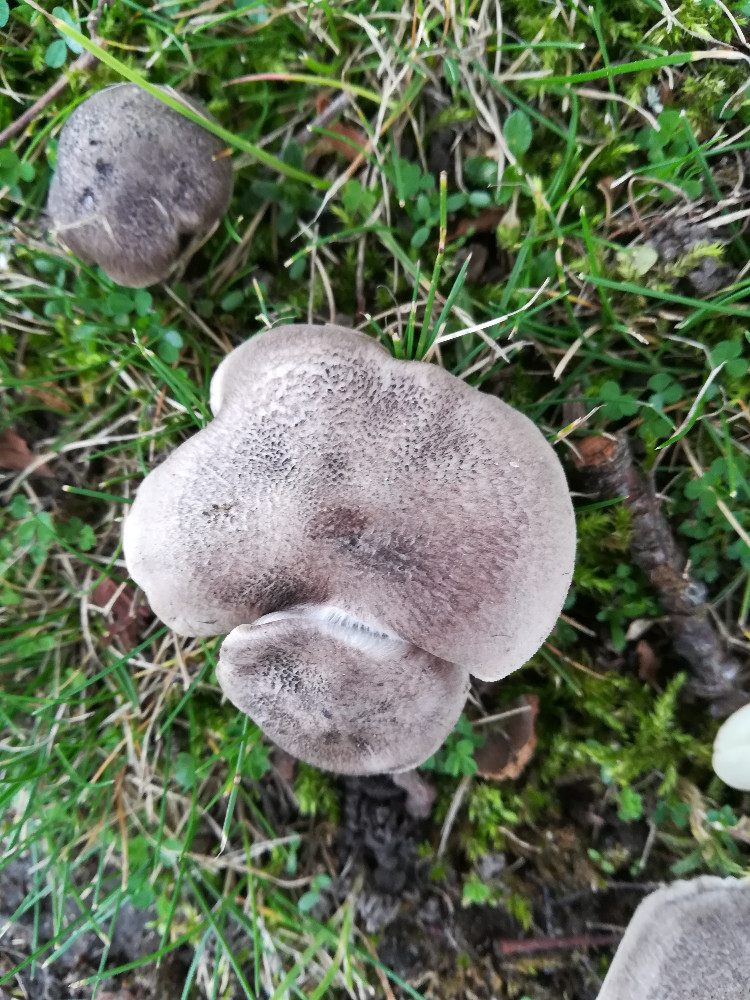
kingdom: Fungi
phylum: Basidiomycota
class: Agaricomycetes
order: Agaricales
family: Tricholomataceae
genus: Tricholoma
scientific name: Tricholoma scalpturatum
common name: gulplettet ridderhat
